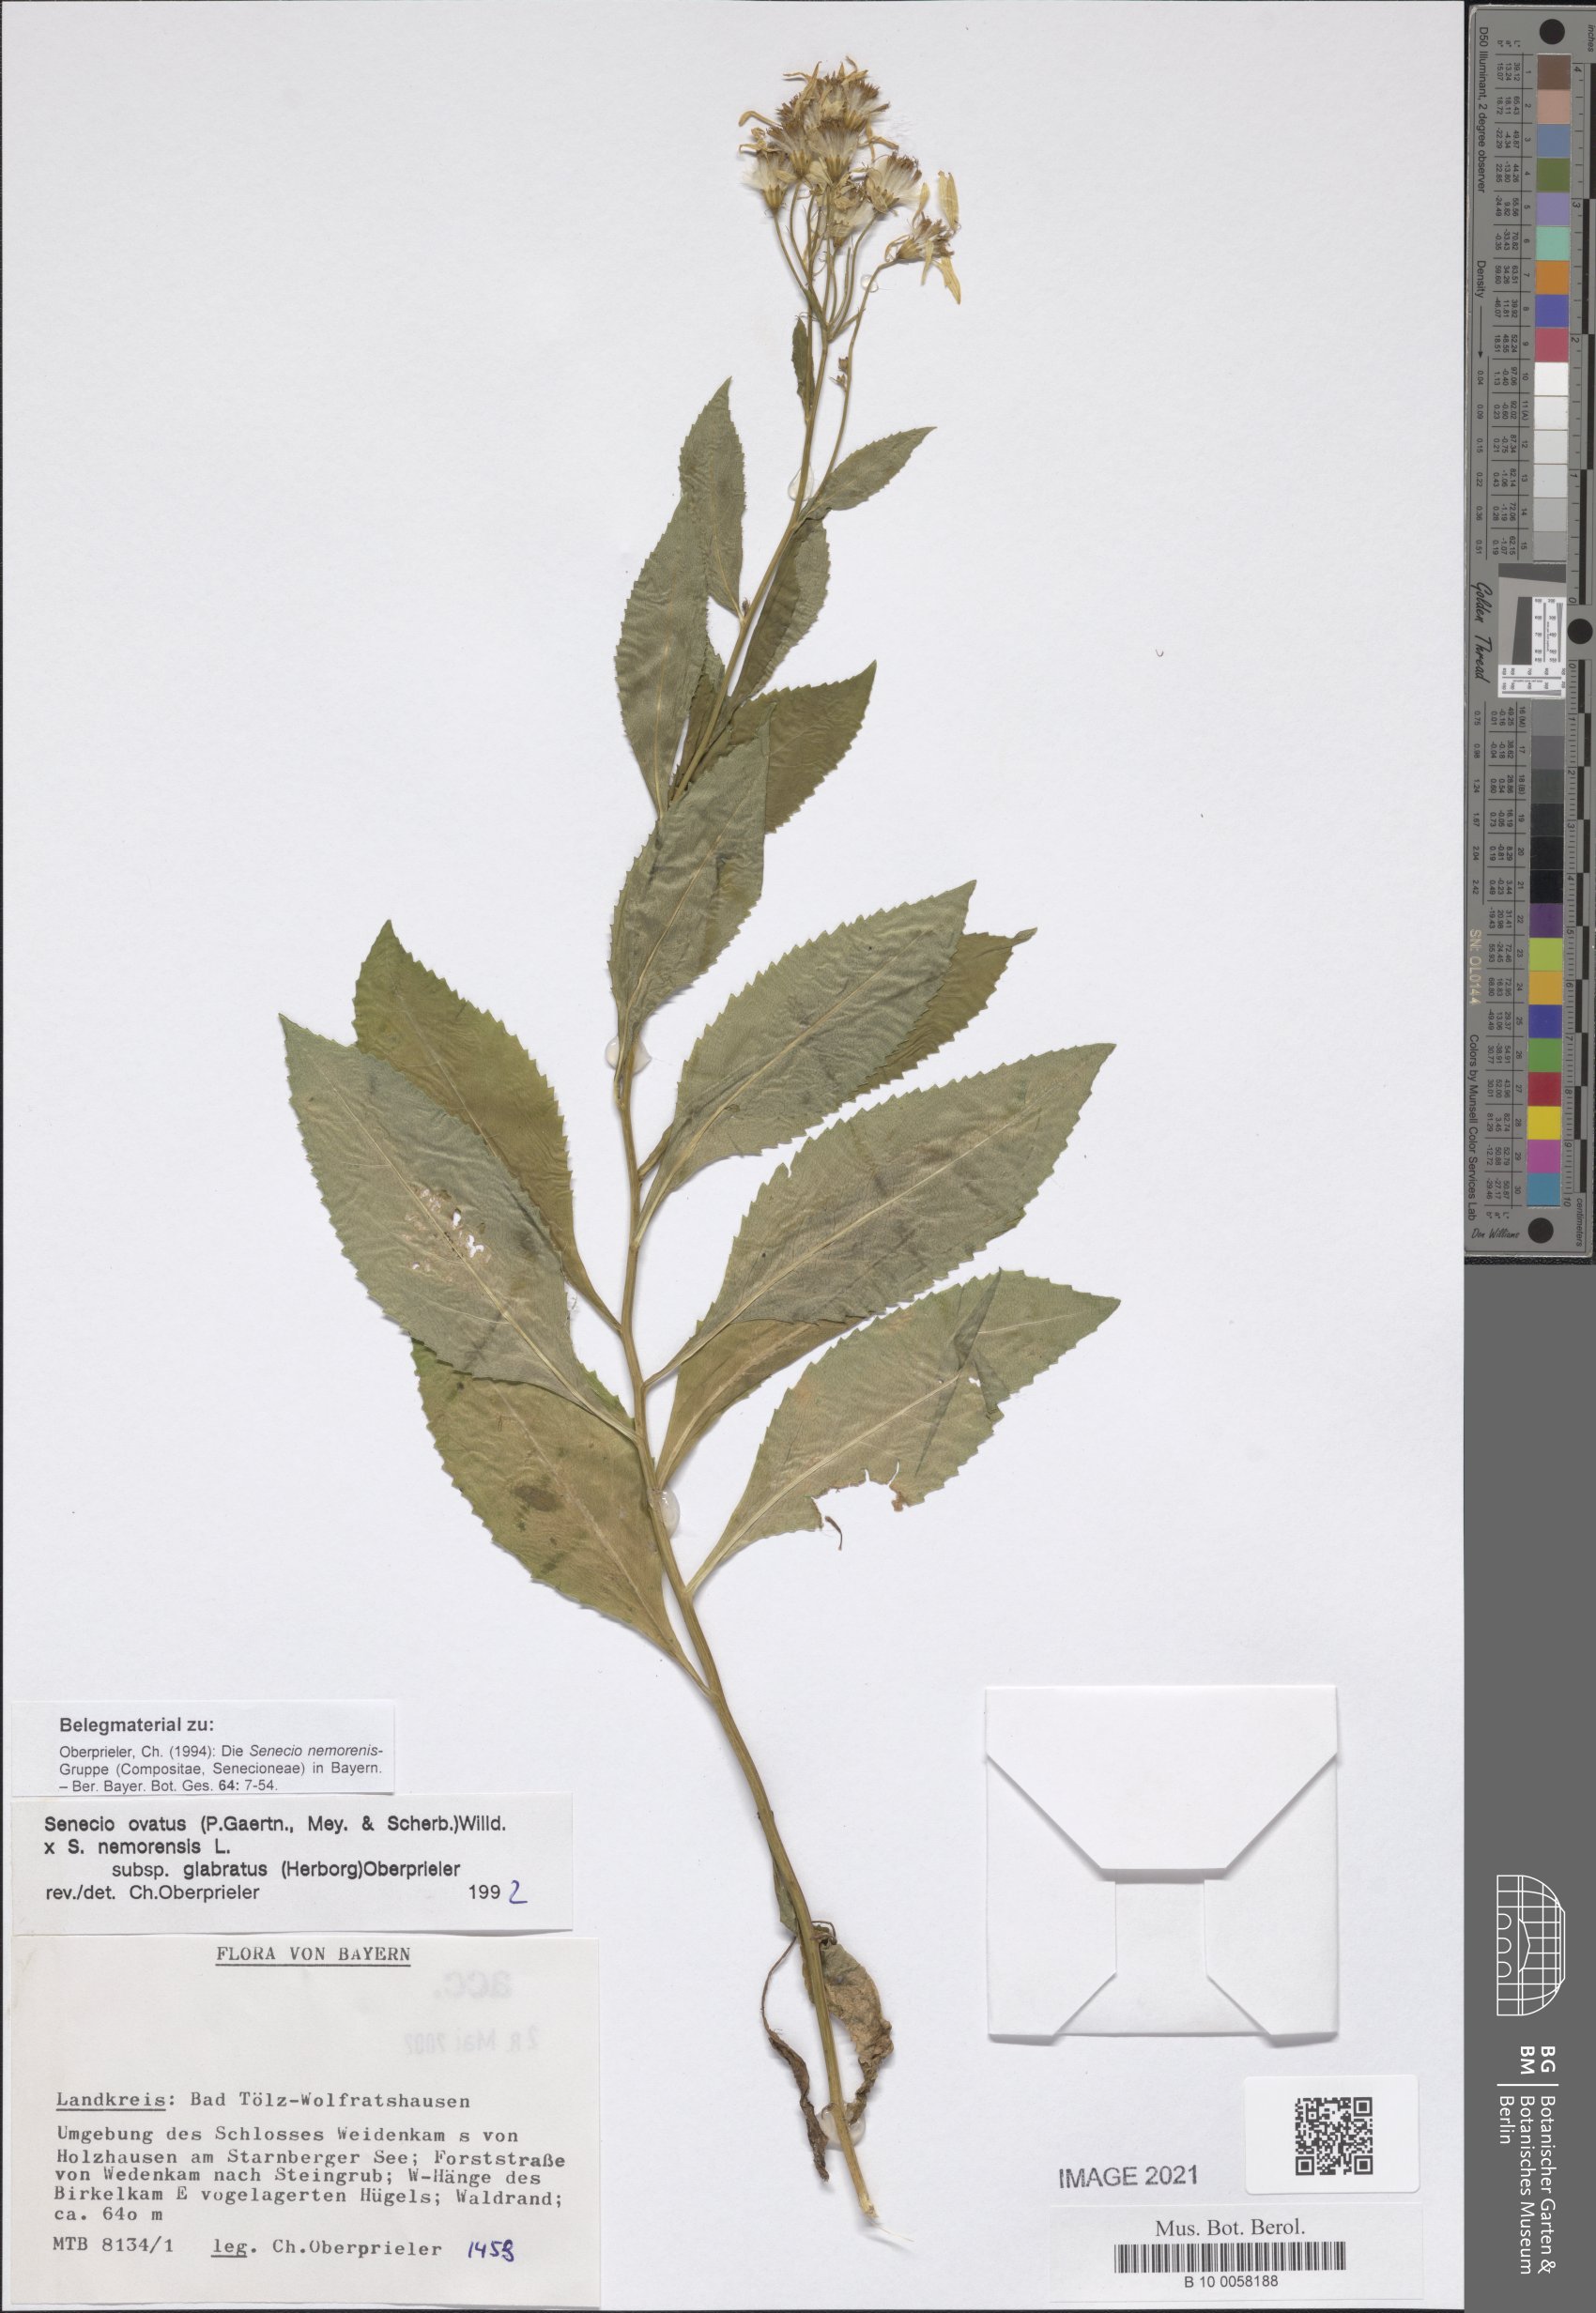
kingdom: Plantae
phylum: Tracheophyta
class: Magnoliopsida
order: Asterales
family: Asteraceae
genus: Senecio
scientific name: Senecio ovatus
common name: Wood ragwort
